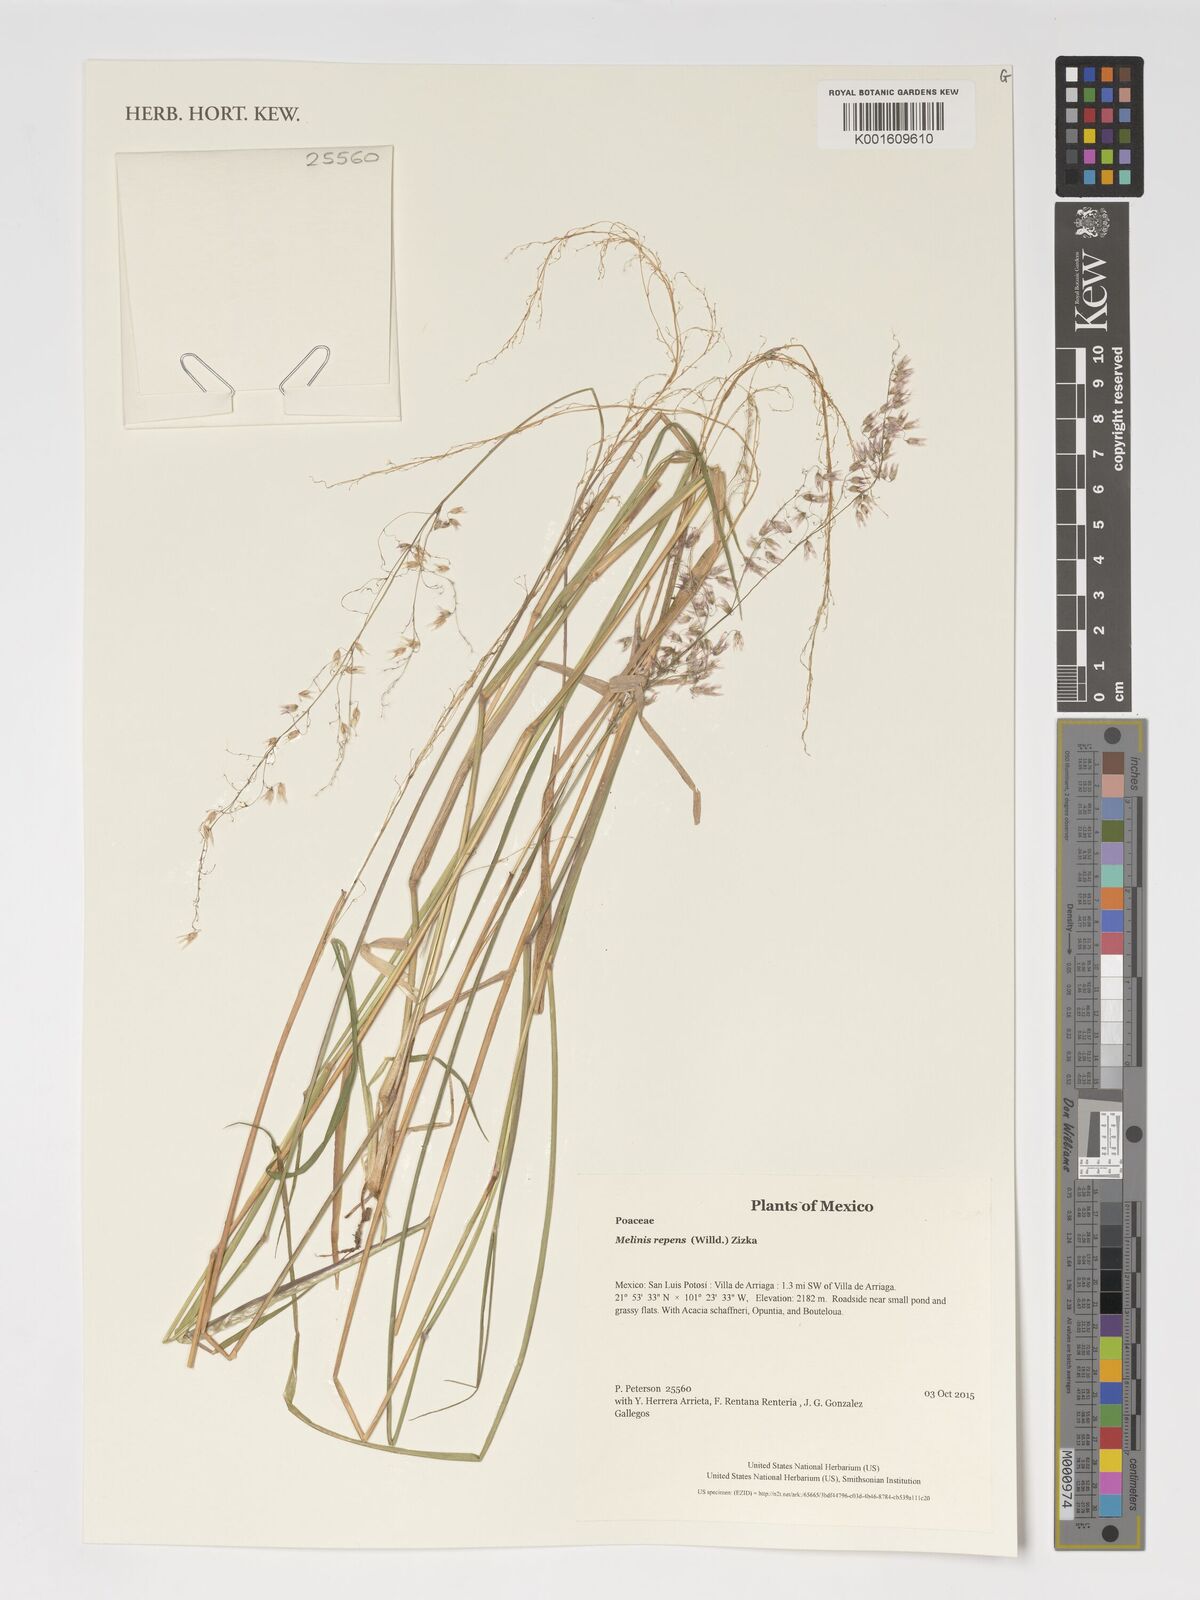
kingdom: Plantae
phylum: Tracheophyta
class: Liliopsida
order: Poales
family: Poaceae
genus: Melinis
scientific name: Melinis repens
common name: Rose natal grass
